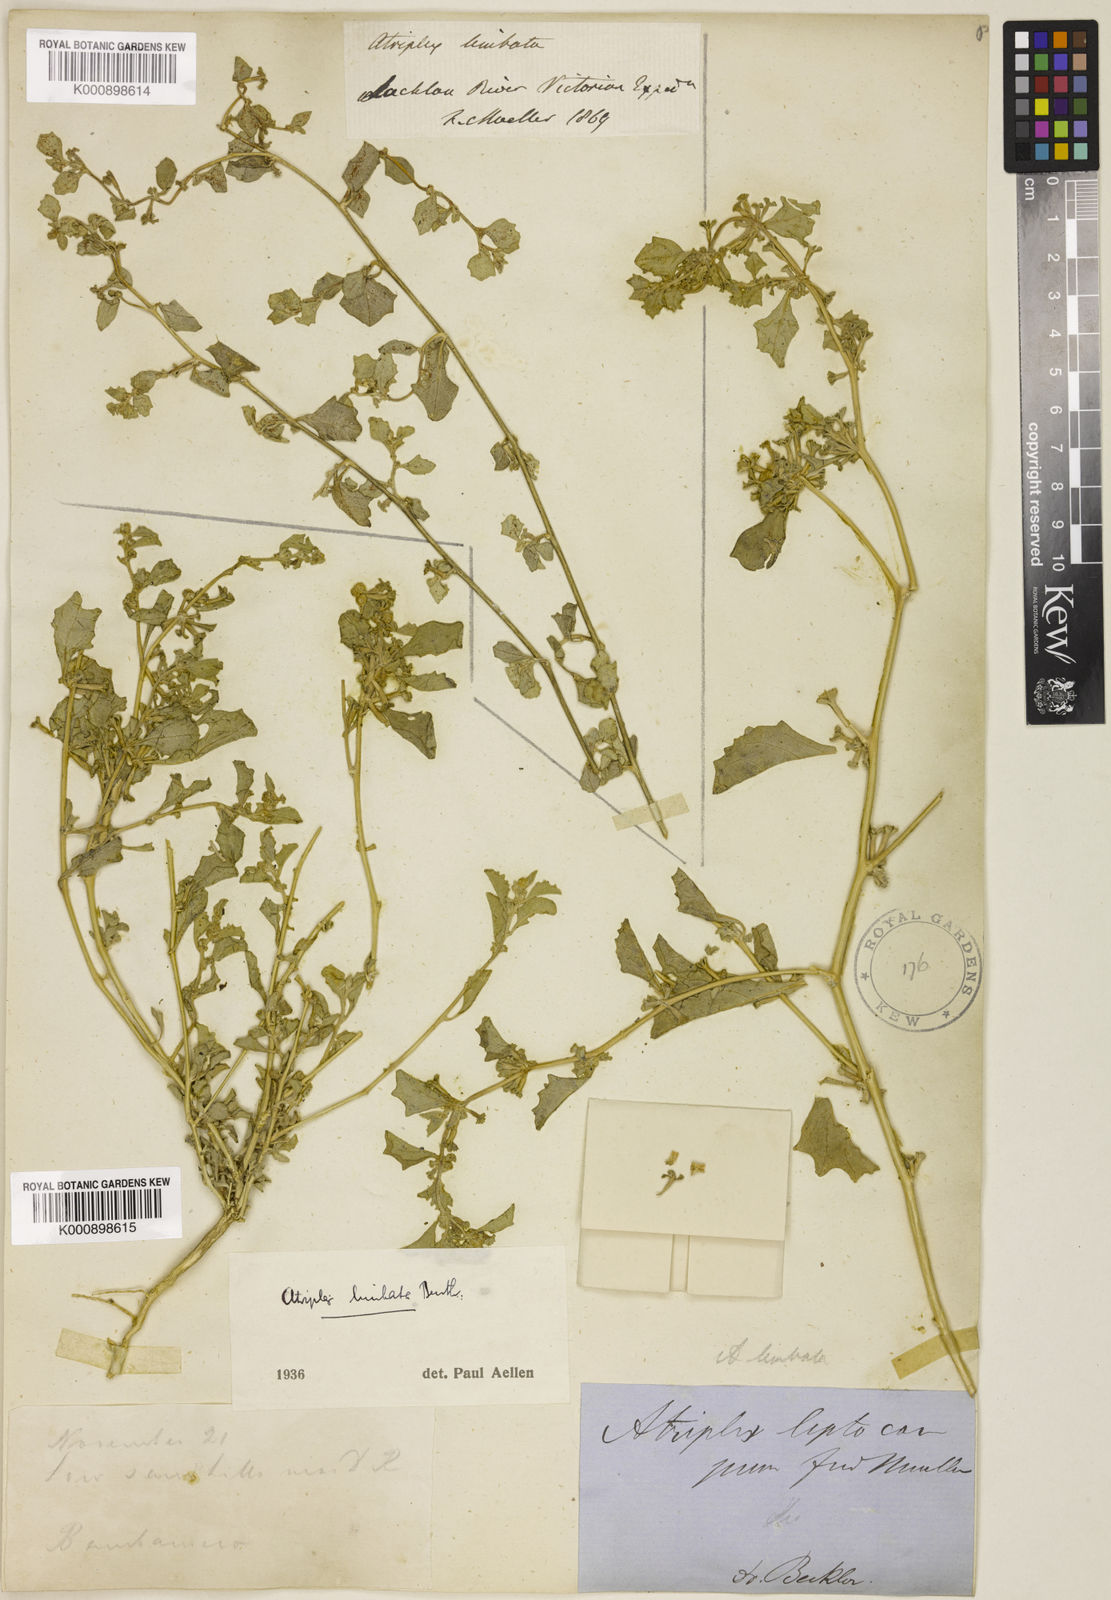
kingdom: Plantae
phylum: Tracheophyta
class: Magnoliopsida
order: Caryophyllales
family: Amaranthaceae
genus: Atriplex
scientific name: Atriplex limbata
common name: Spreading saltbush
